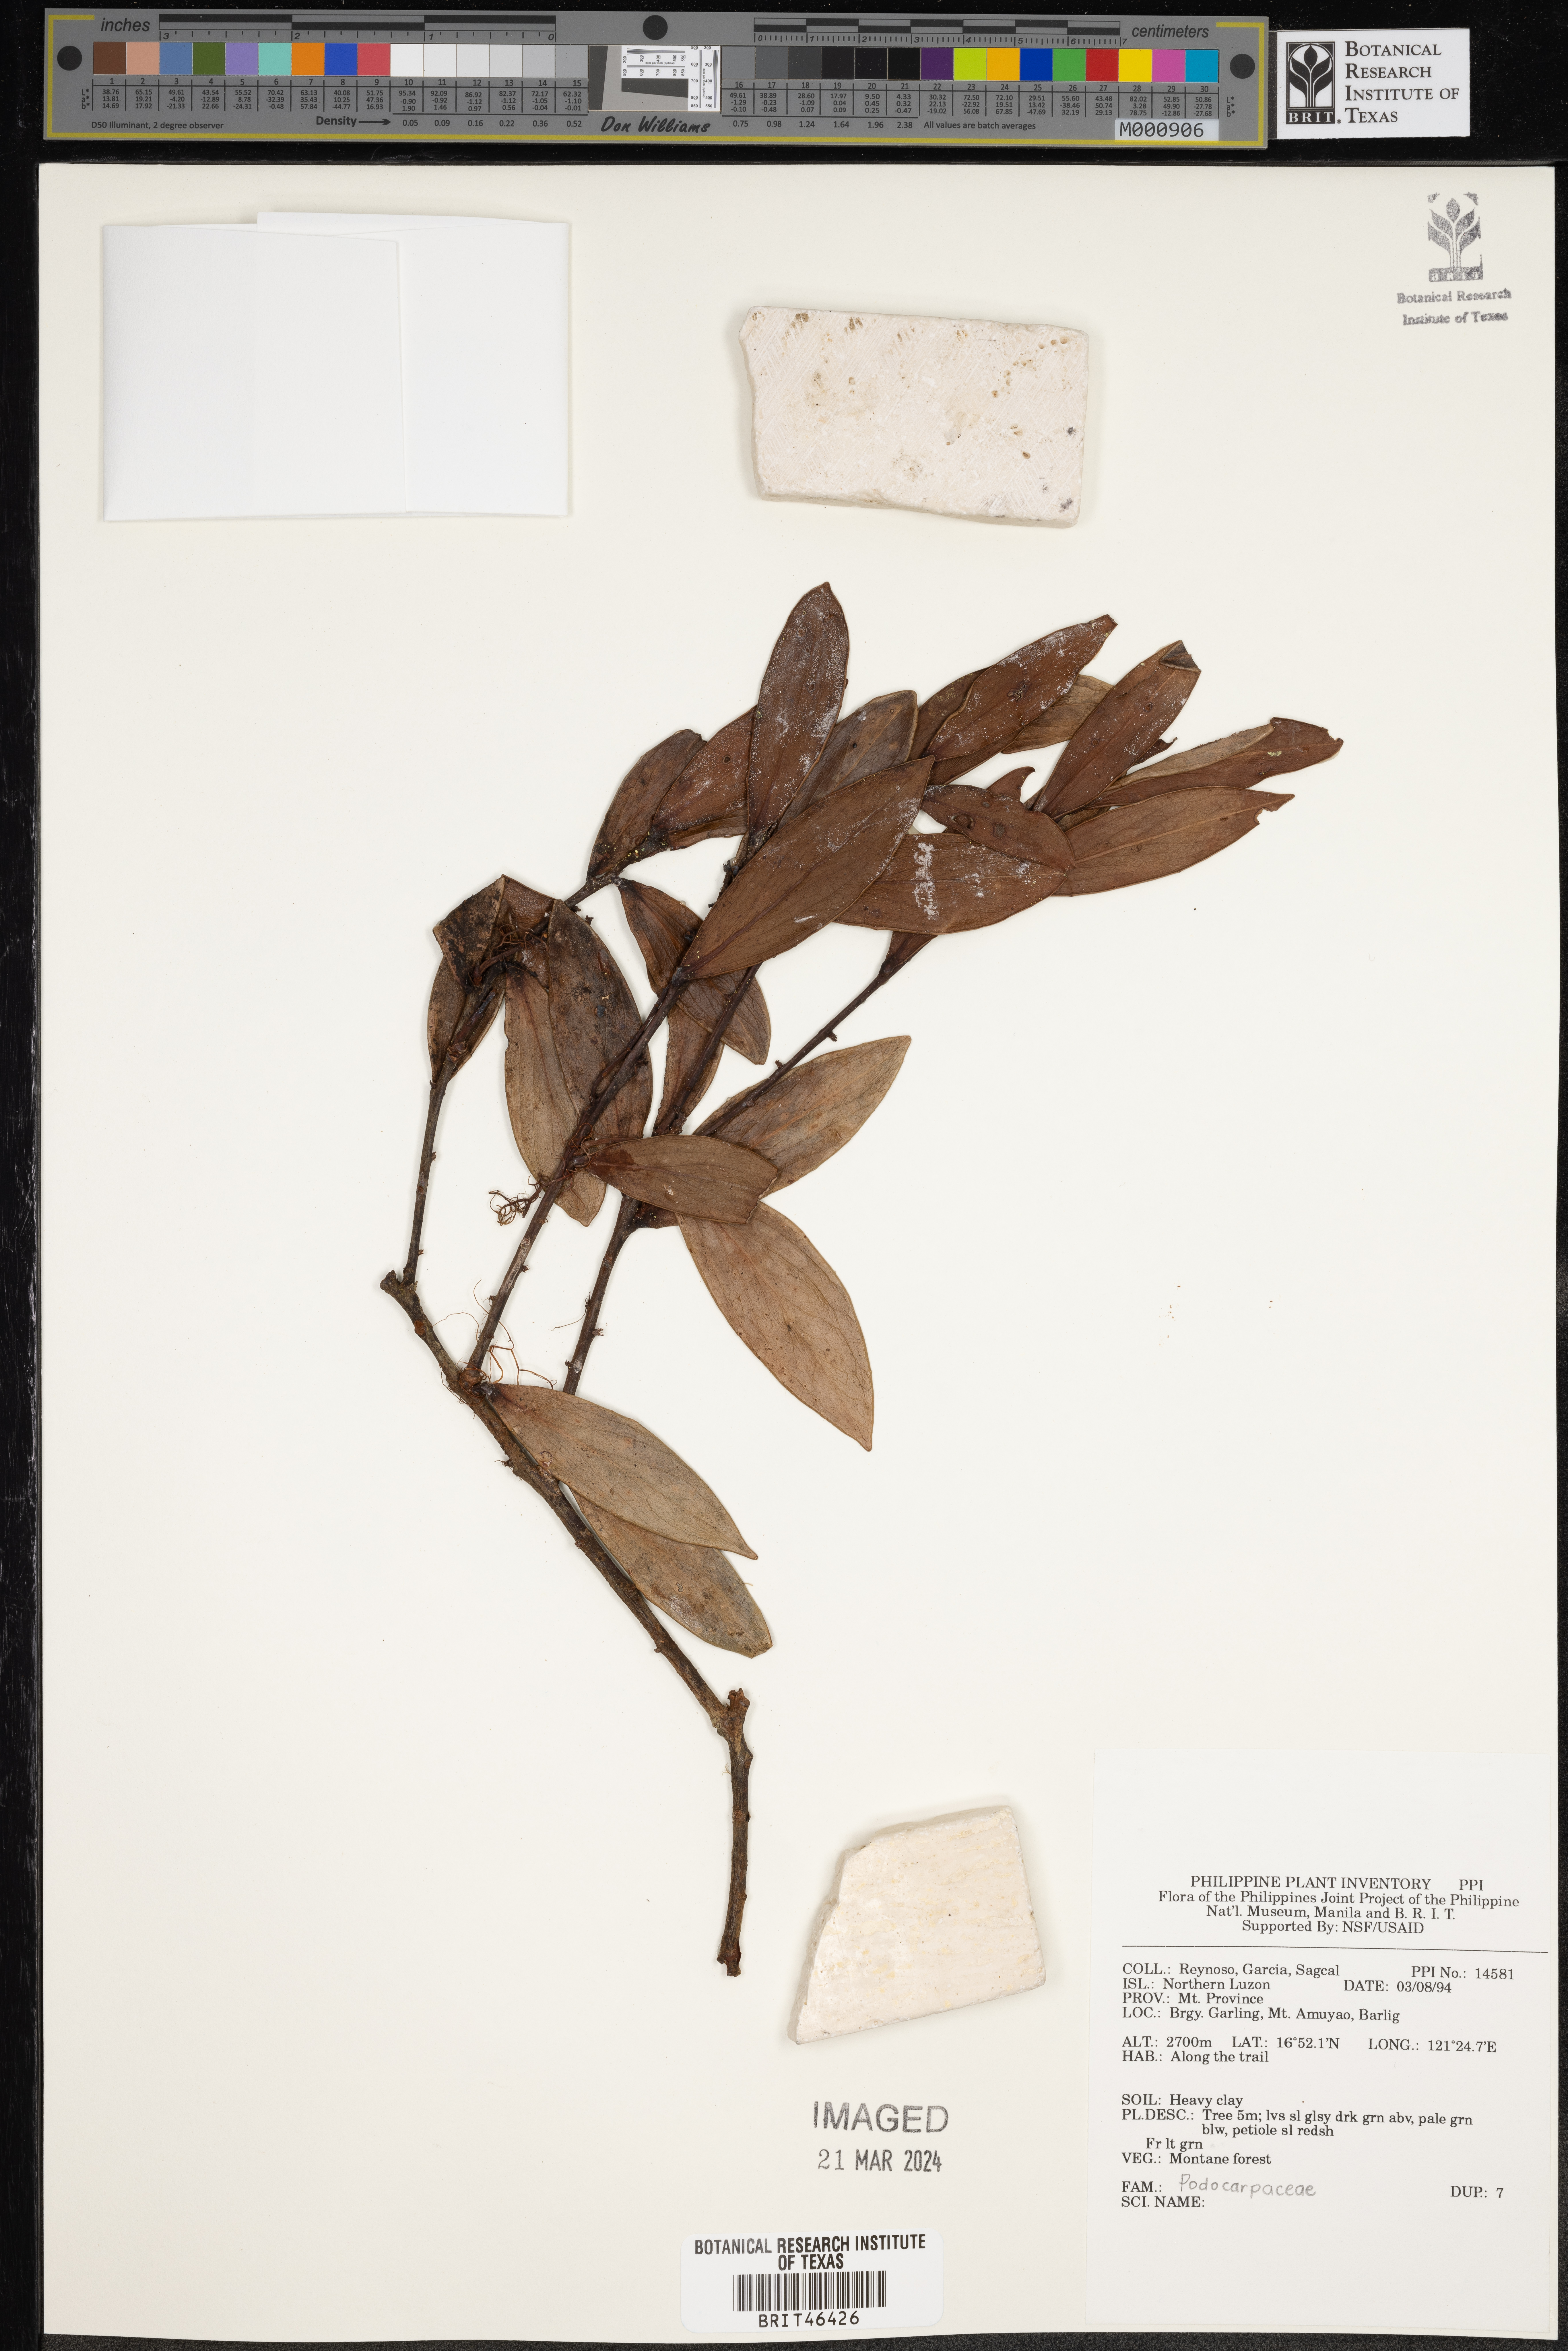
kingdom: Plantae
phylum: Tracheophyta
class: Pinopsida
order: Pinales
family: Podocarpaceae
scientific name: Podocarpaceae
